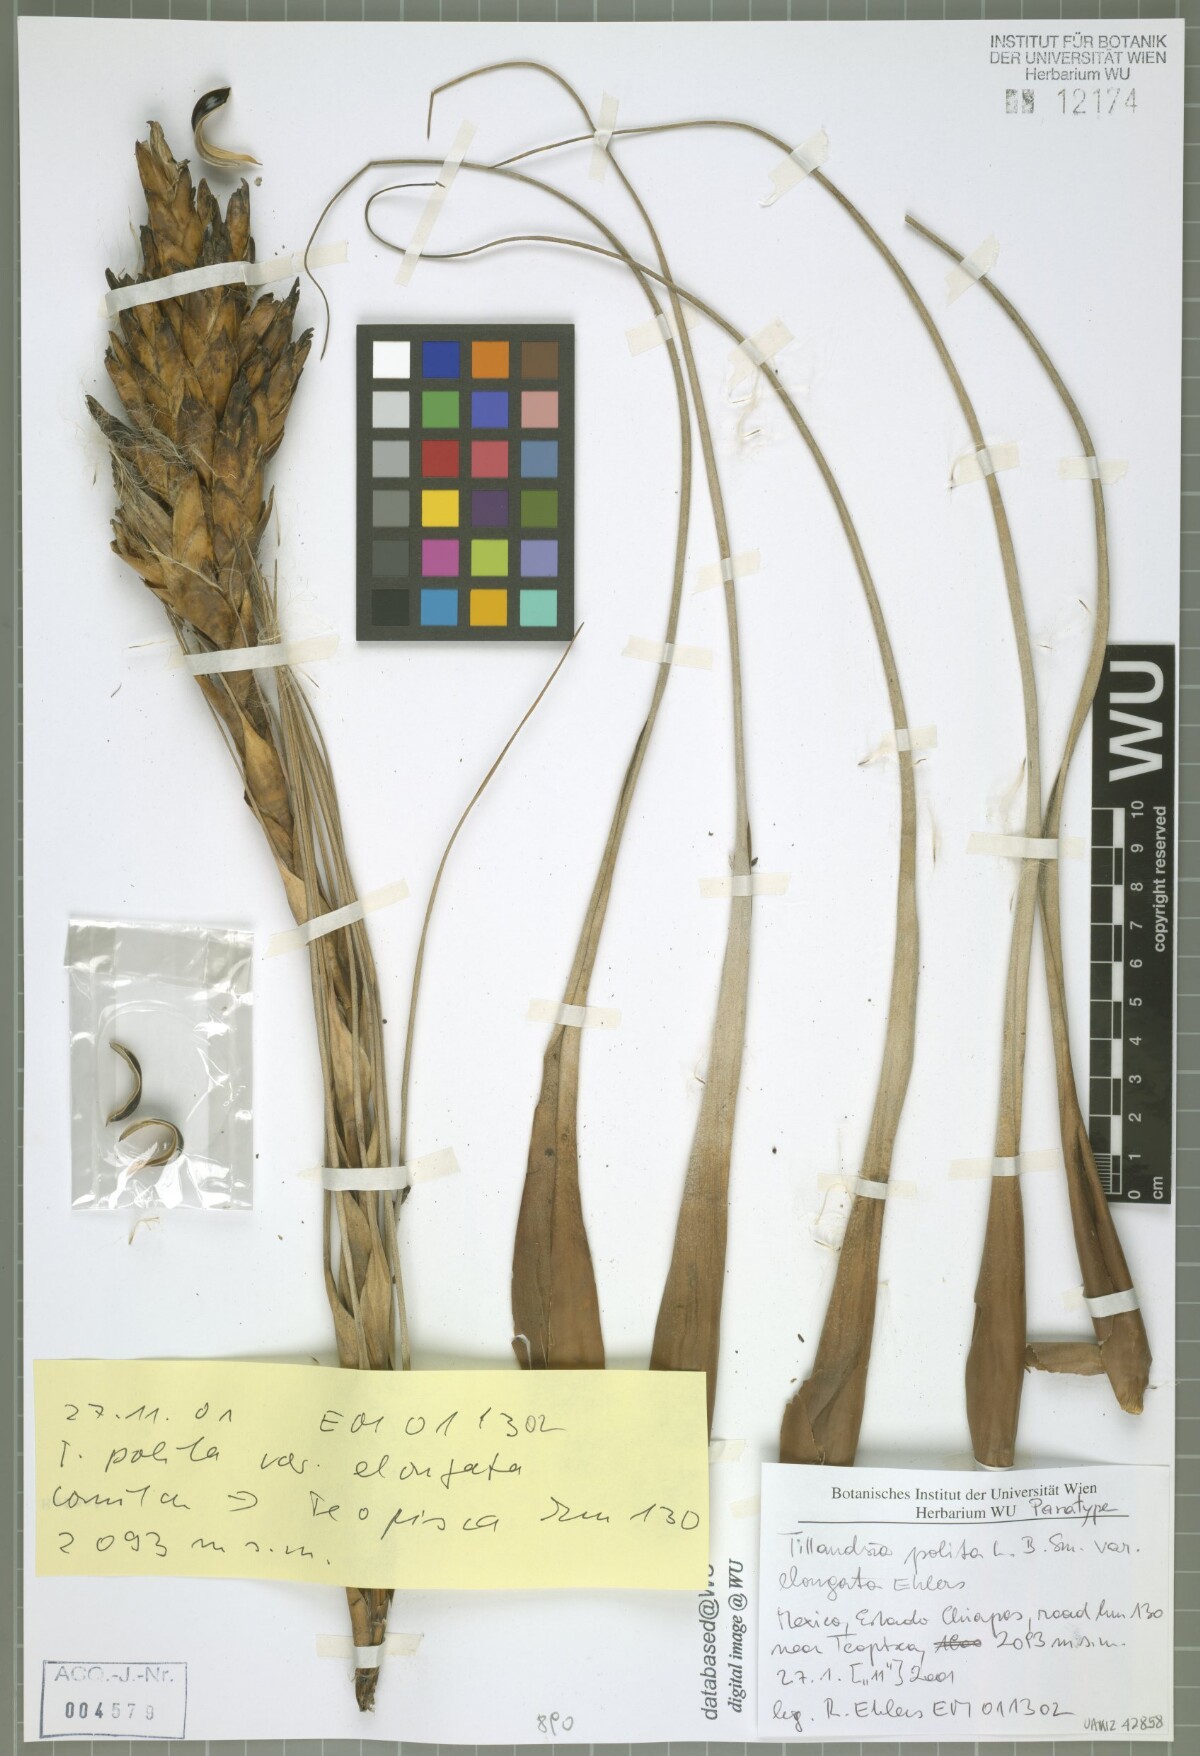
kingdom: Plantae
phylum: Tracheophyta
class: Liliopsida
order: Poales
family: Bromeliaceae
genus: Tillandsia
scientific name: Tillandsia polita
